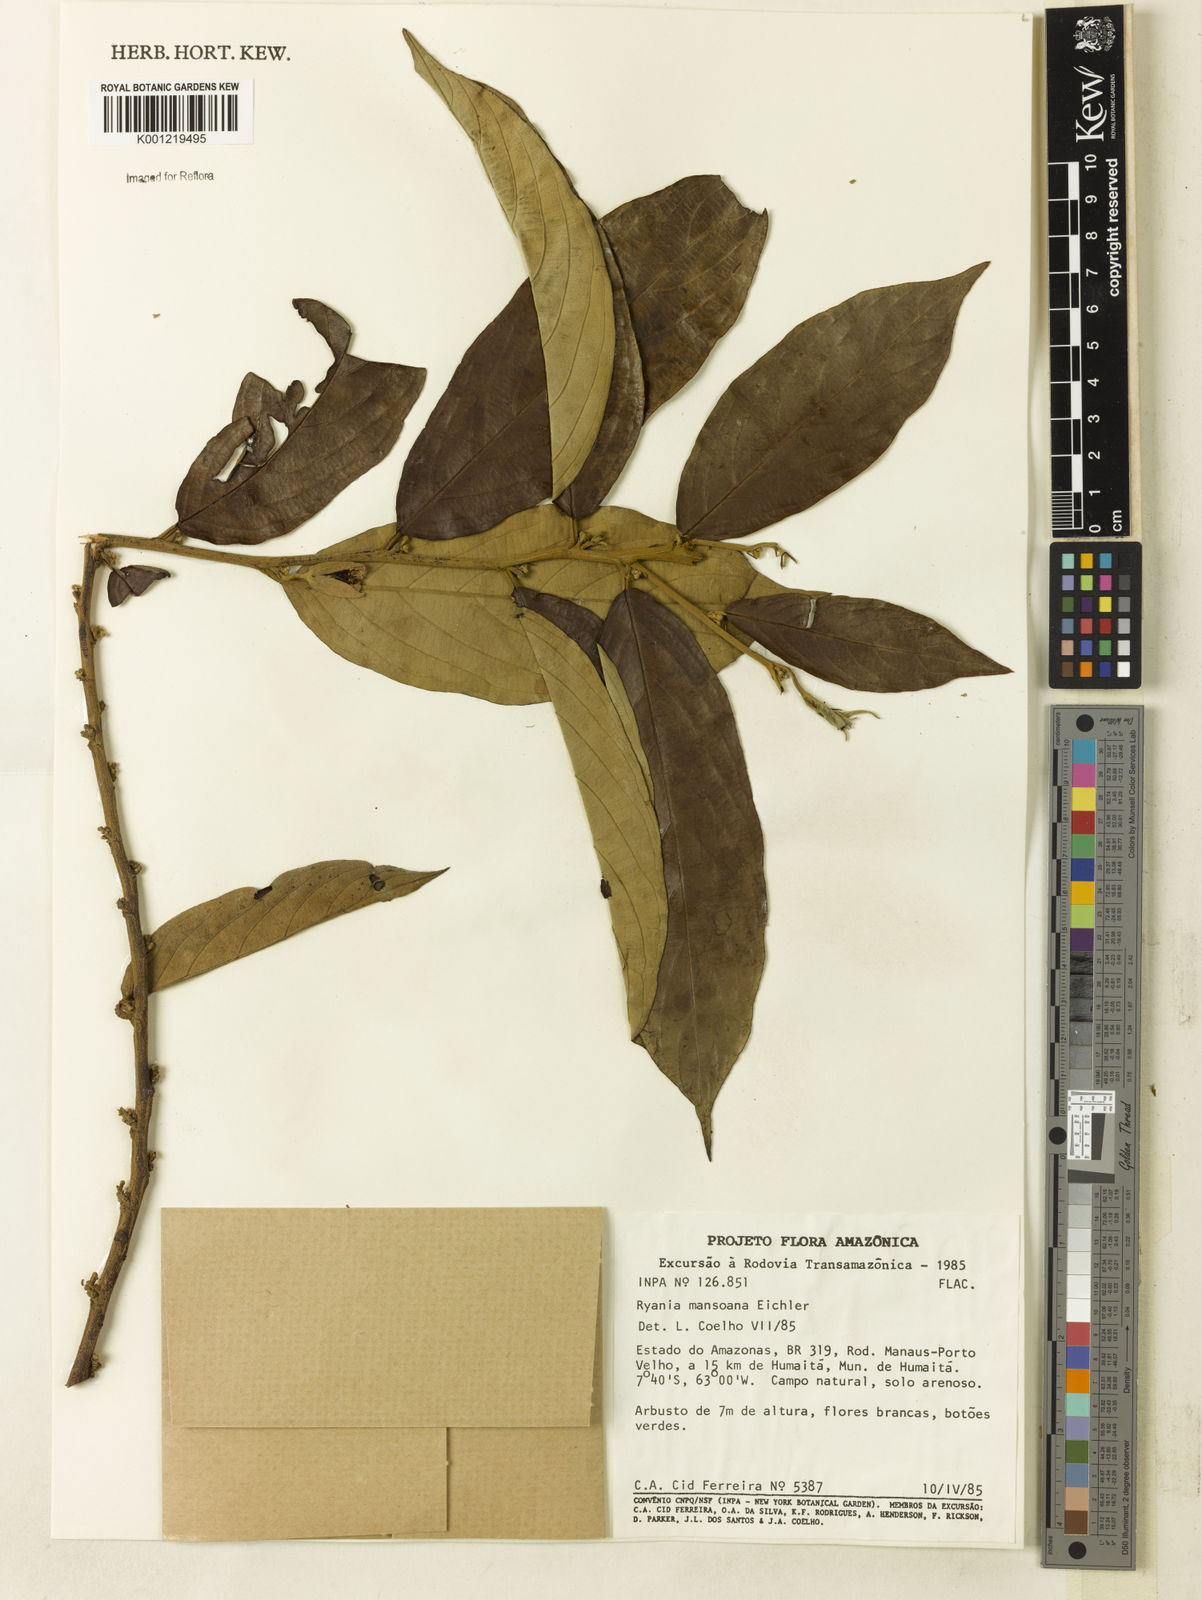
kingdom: Plantae
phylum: Tracheophyta
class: Magnoliopsida
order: Malpighiales
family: Salicaceae
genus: Ryania
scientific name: Ryania mansoana
